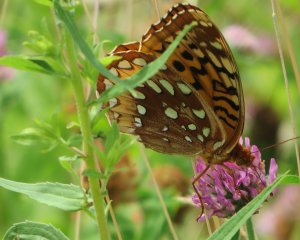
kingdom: Animalia
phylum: Arthropoda
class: Insecta
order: Lepidoptera
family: Nymphalidae
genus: Speyeria
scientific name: Speyeria cybele
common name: Great Spangled Fritillary
